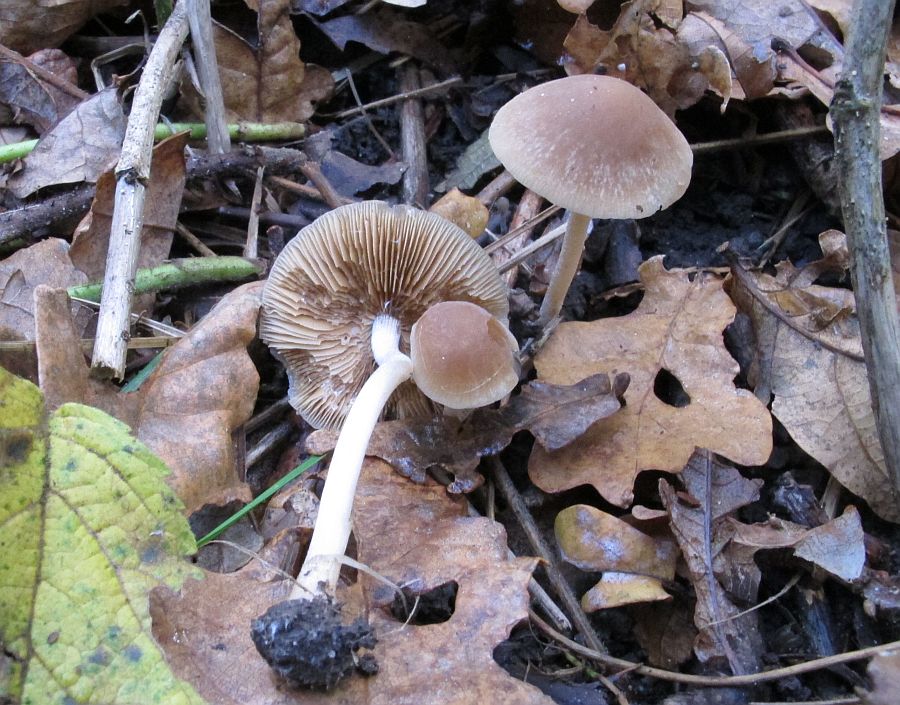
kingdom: Fungi
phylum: Basidiomycota
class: Agaricomycetes
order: Agaricales
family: Bolbitiaceae
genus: Conocybe
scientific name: Conocybe striipes
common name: knippe-dansehat
